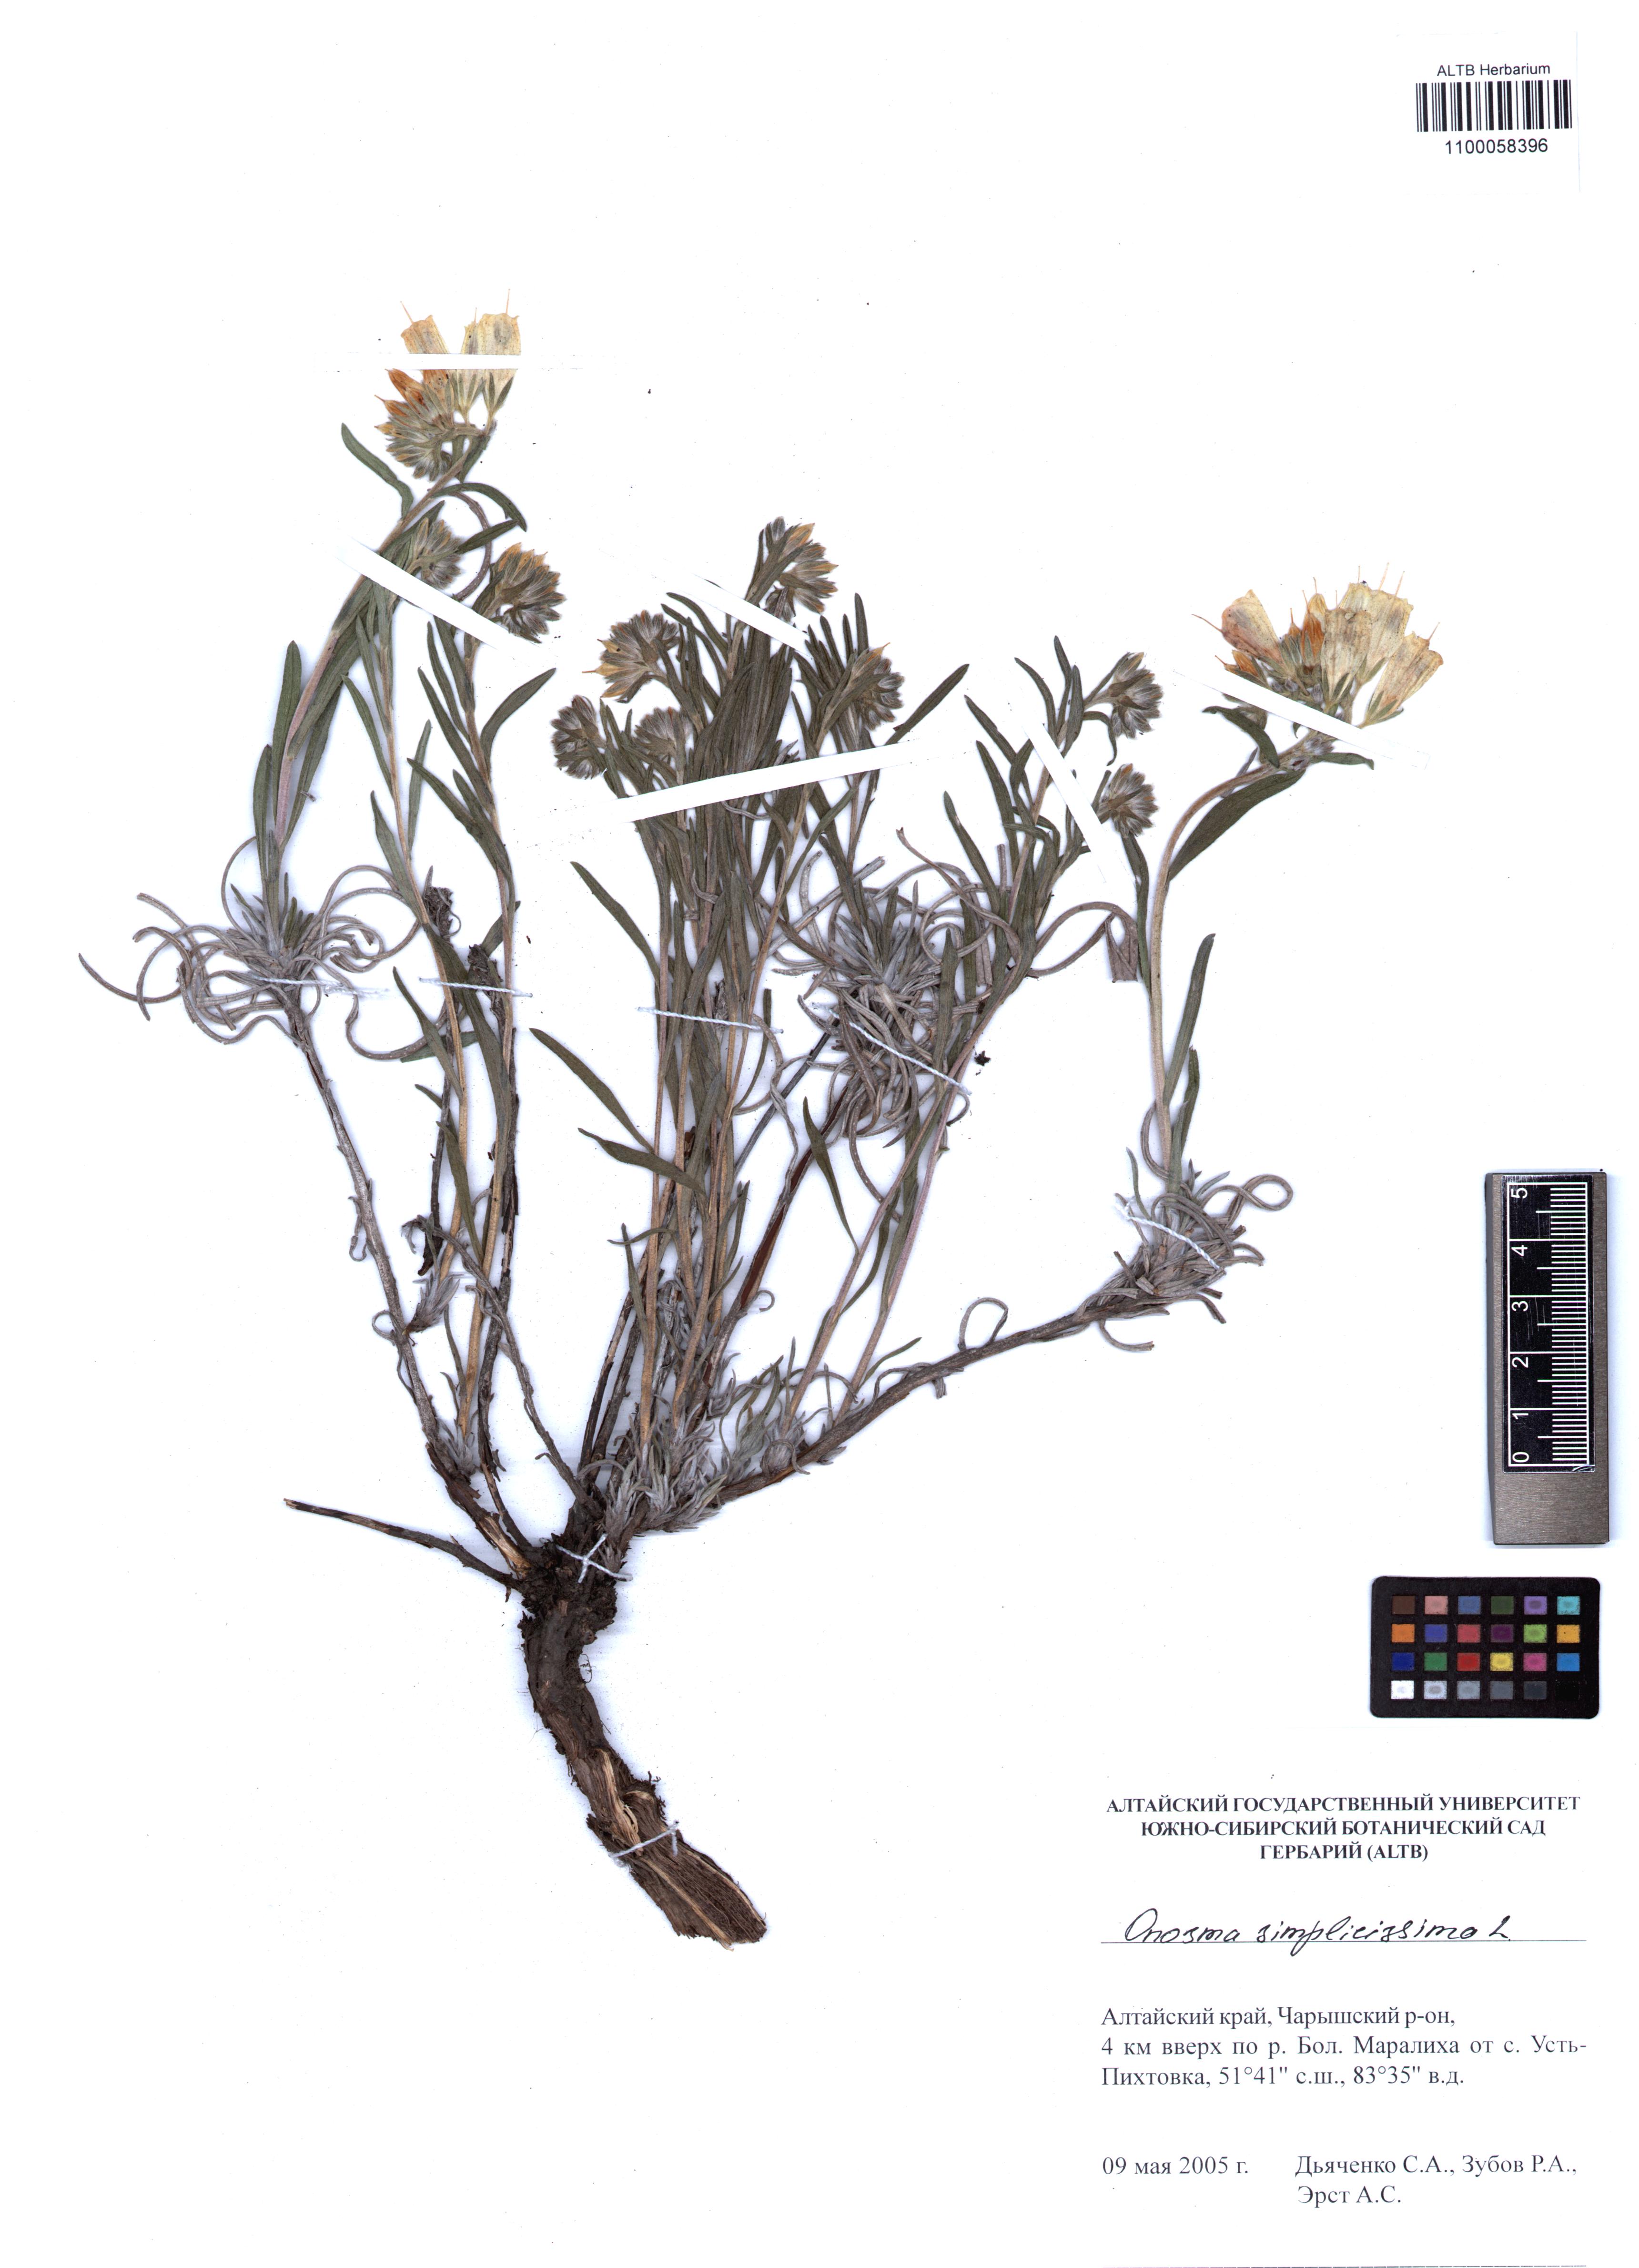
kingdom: Plantae
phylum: Tracheophyta
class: Magnoliopsida
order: Boraginales
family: Boraginaceae
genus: Onosma
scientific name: Onosma simplicissima
